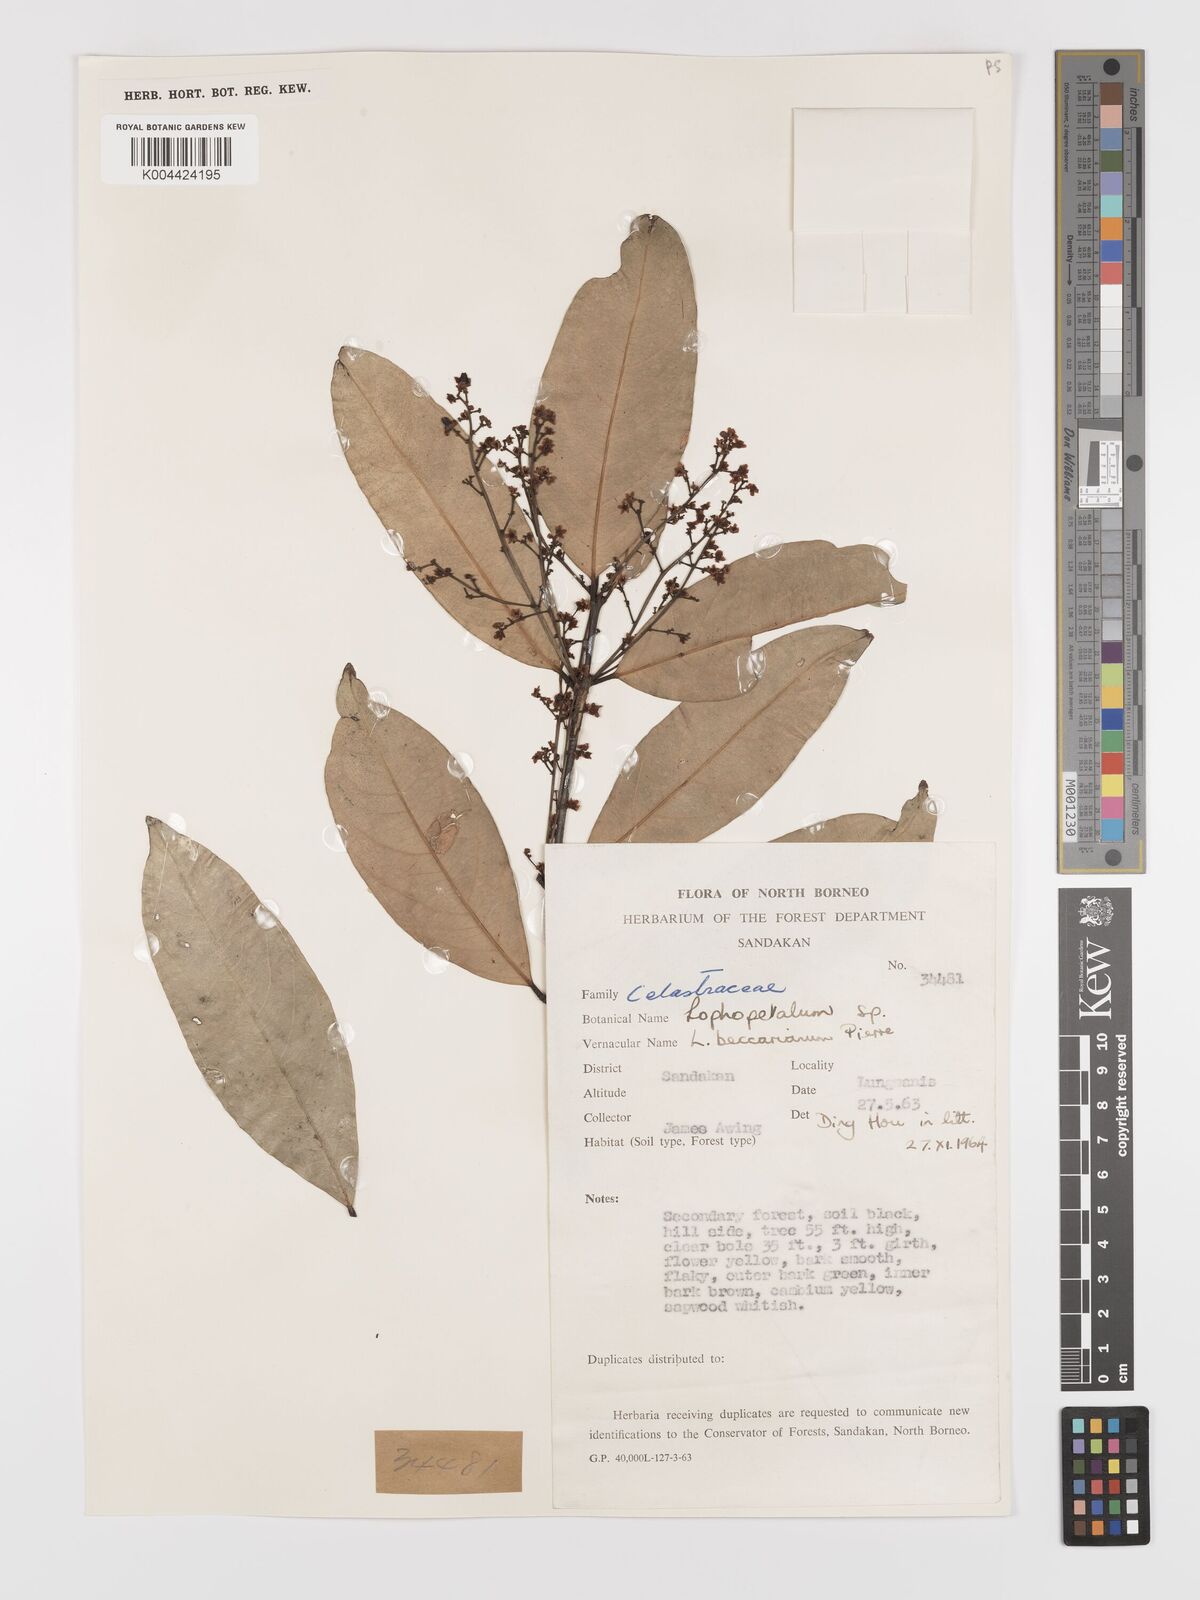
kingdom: Plantae
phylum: Tracheophyta
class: Magnoliopsida
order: Celastrales
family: Celastraceae
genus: Lophopetalum
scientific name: Lophopetalum beccarianum
